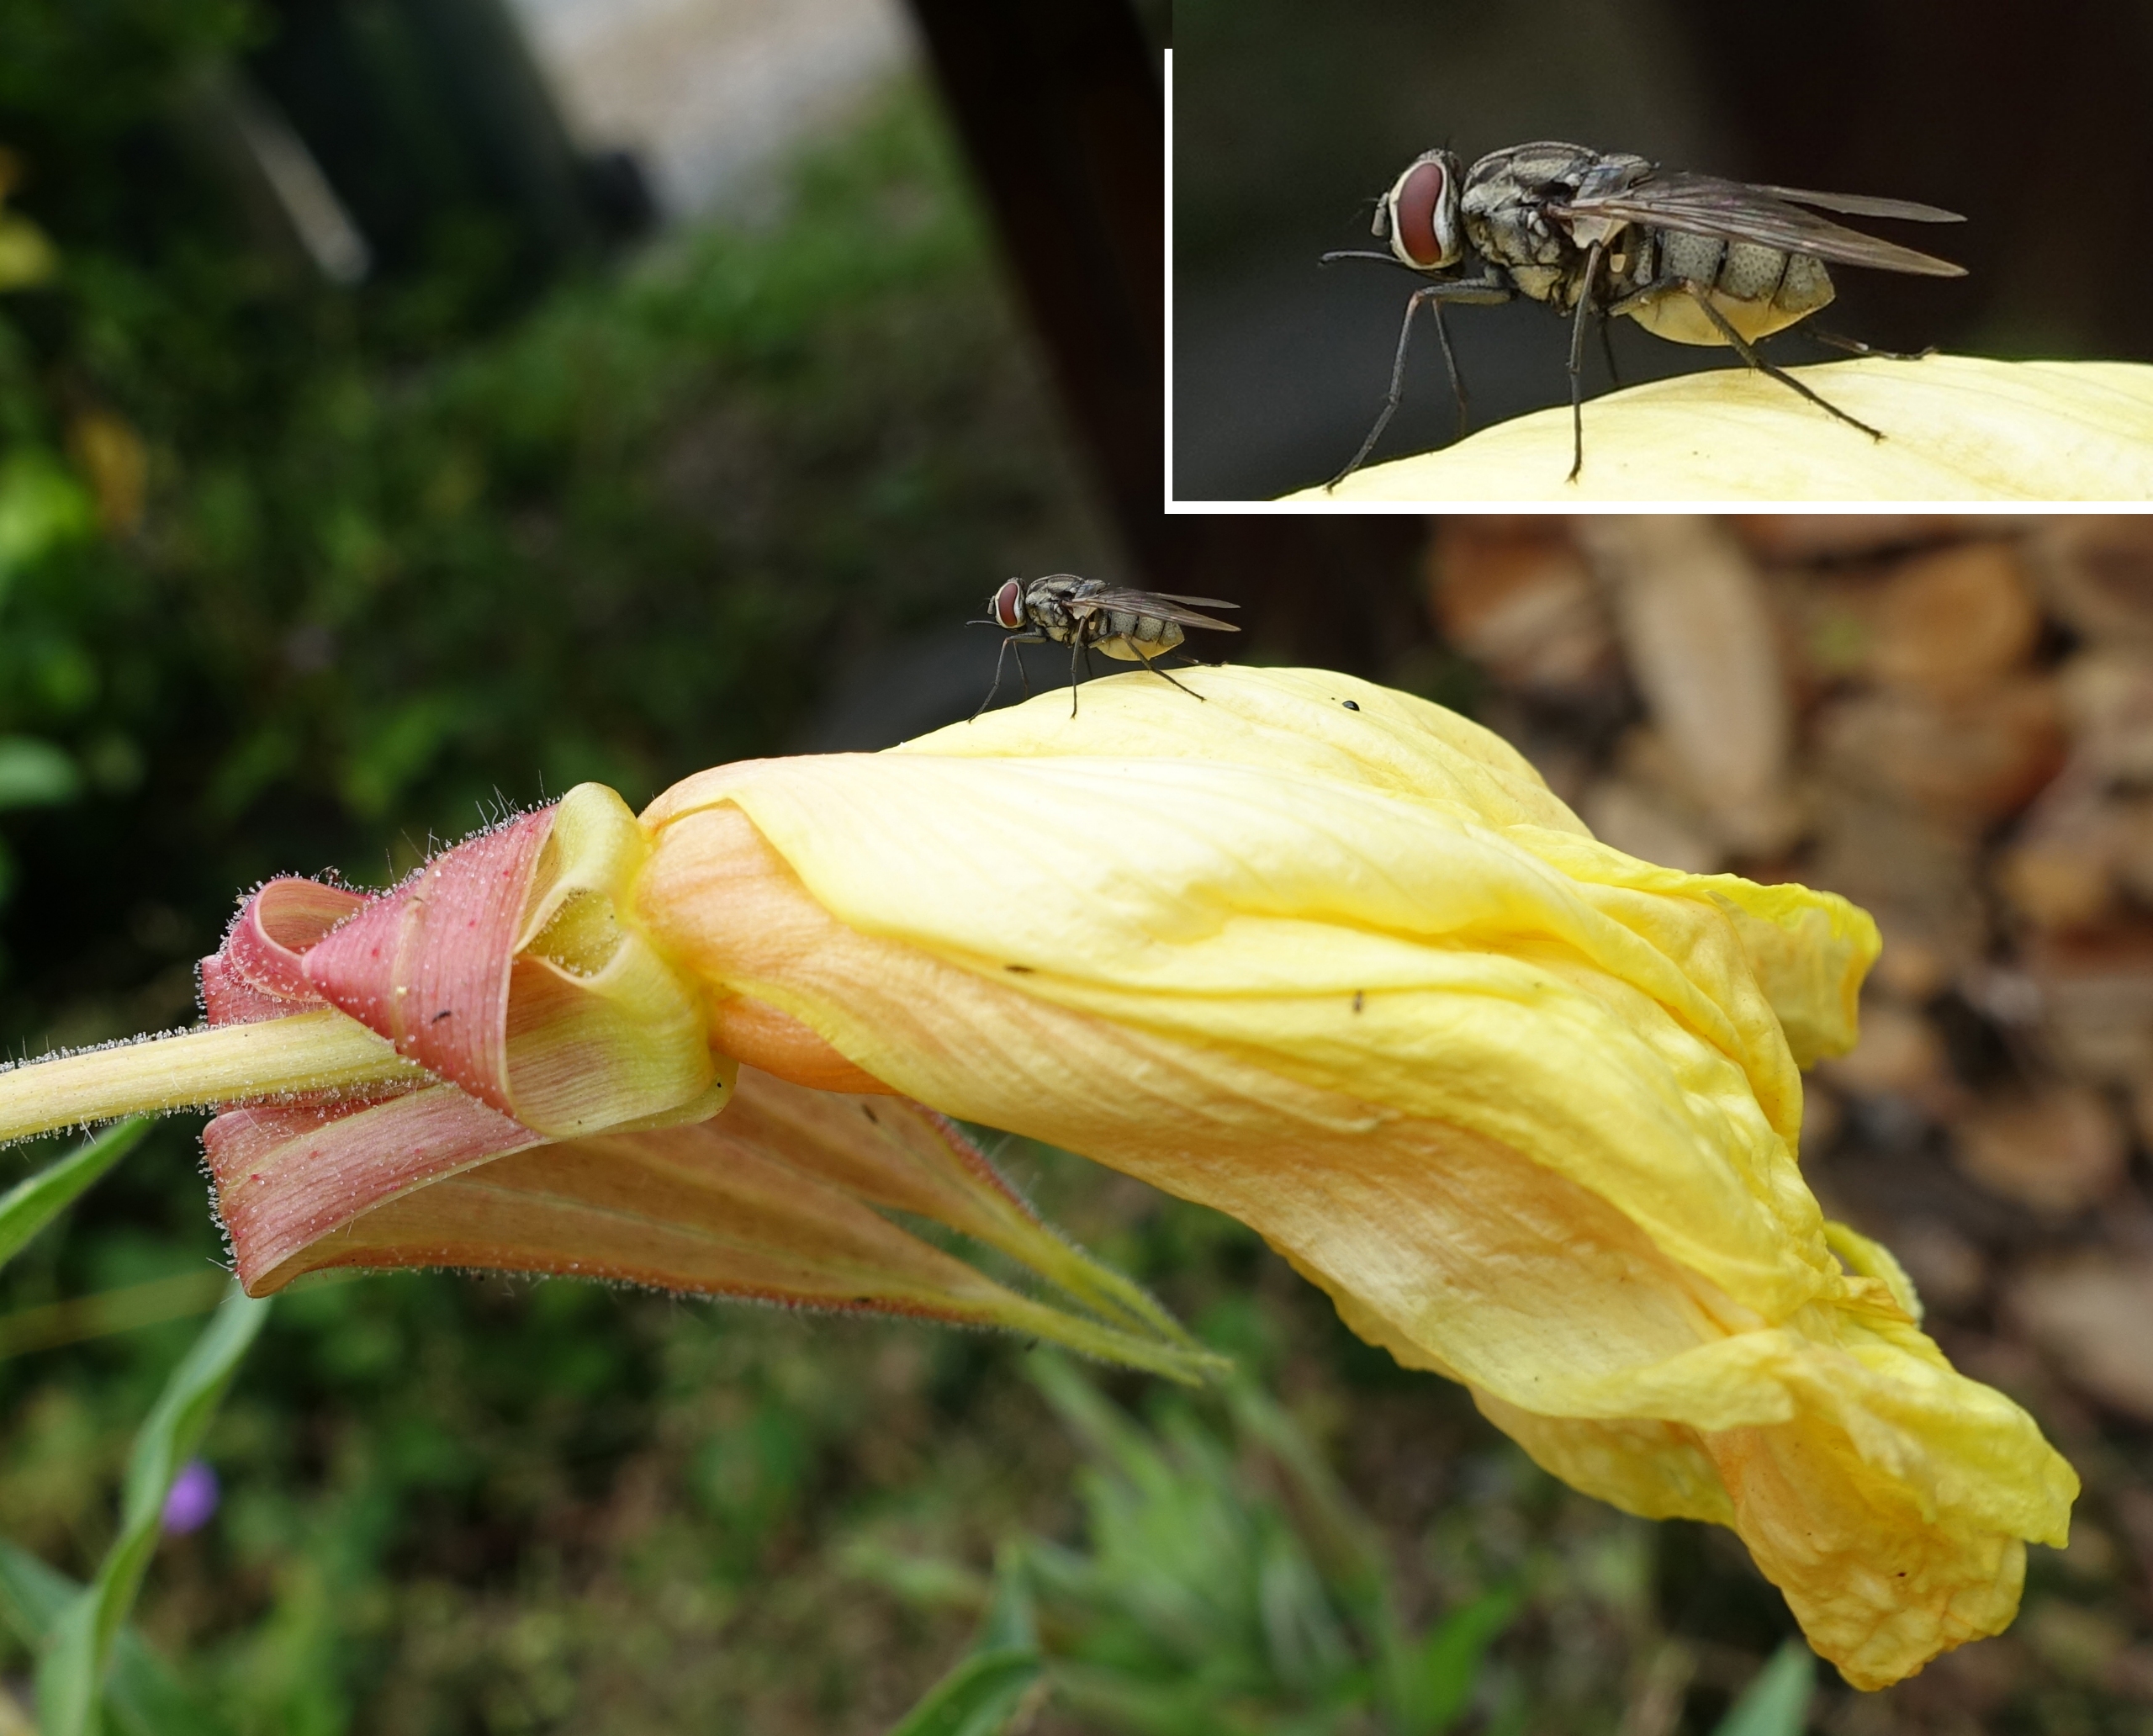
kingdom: Animalia
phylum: Arthropoda
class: Insecta
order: Diptera
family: Muscidae
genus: Stomoxys
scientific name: Stomoxys calcitrans
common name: Stikflue
